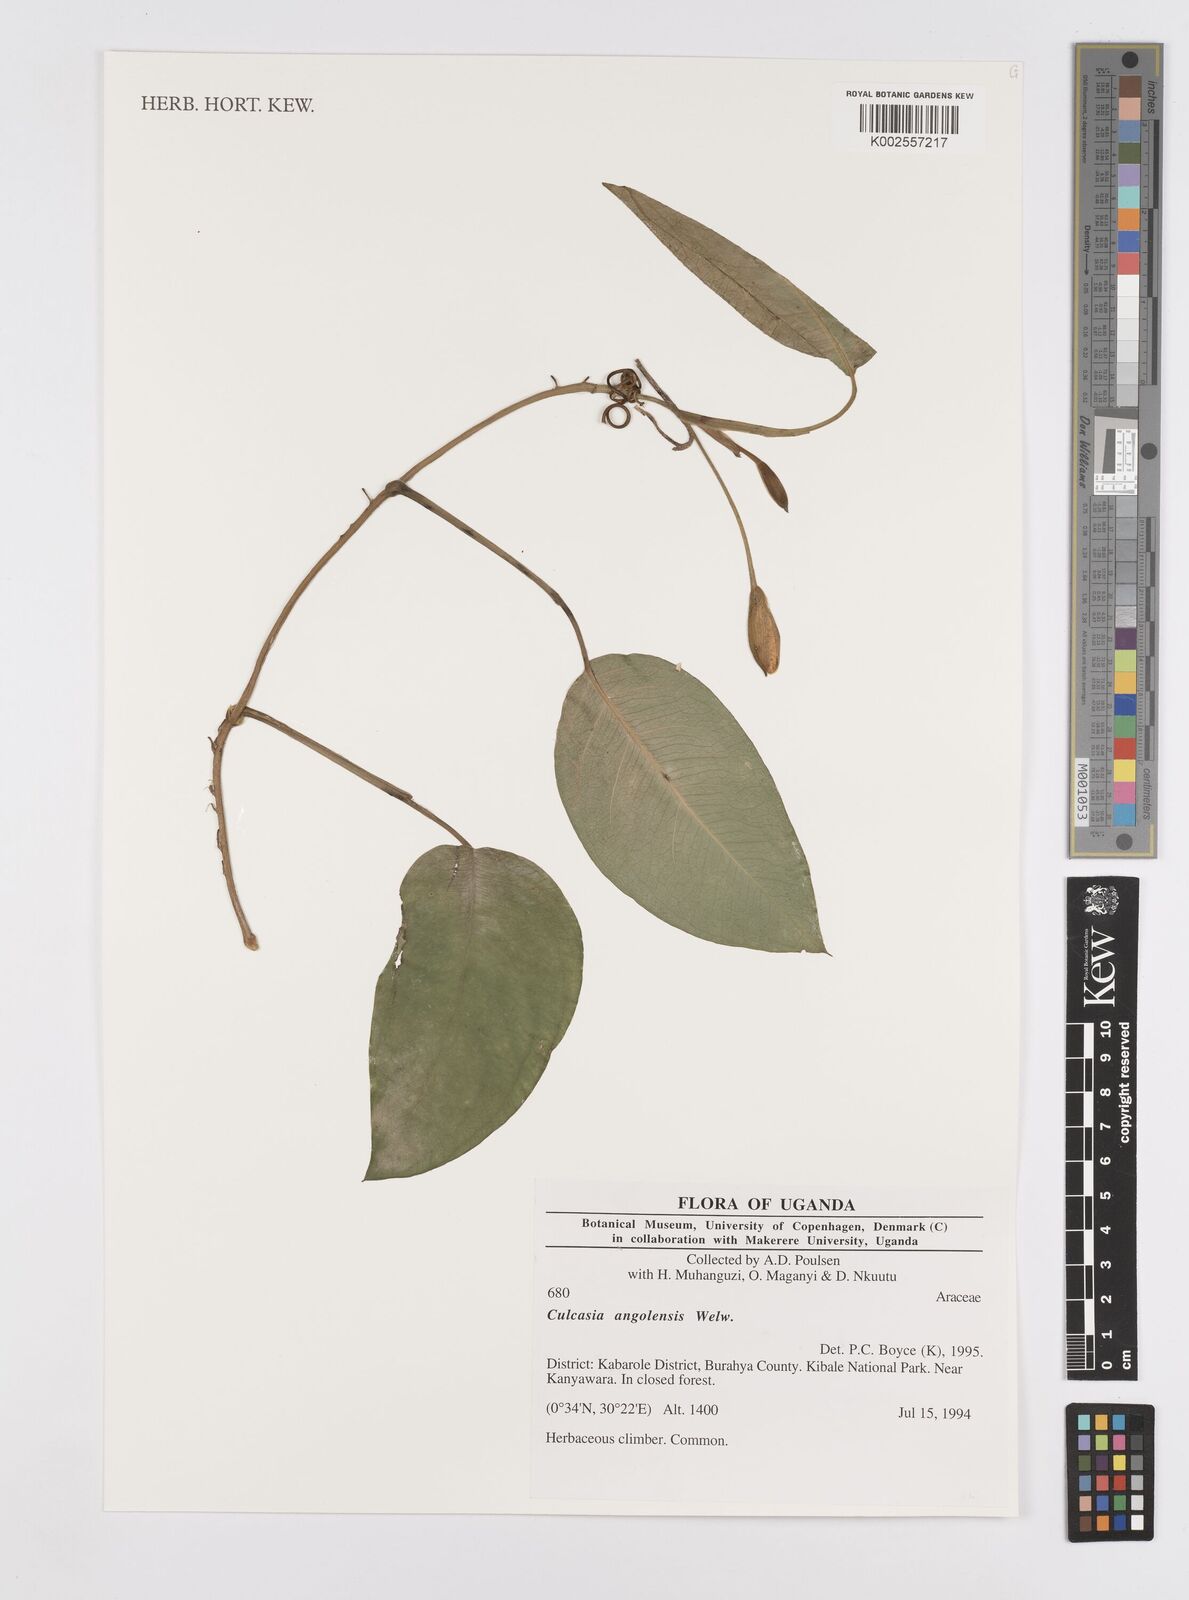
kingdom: Plantae
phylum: Tracheophyta
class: Liliopsida
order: Alismatales
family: Araceae
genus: Culcasia
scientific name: Culcasia angolensis
